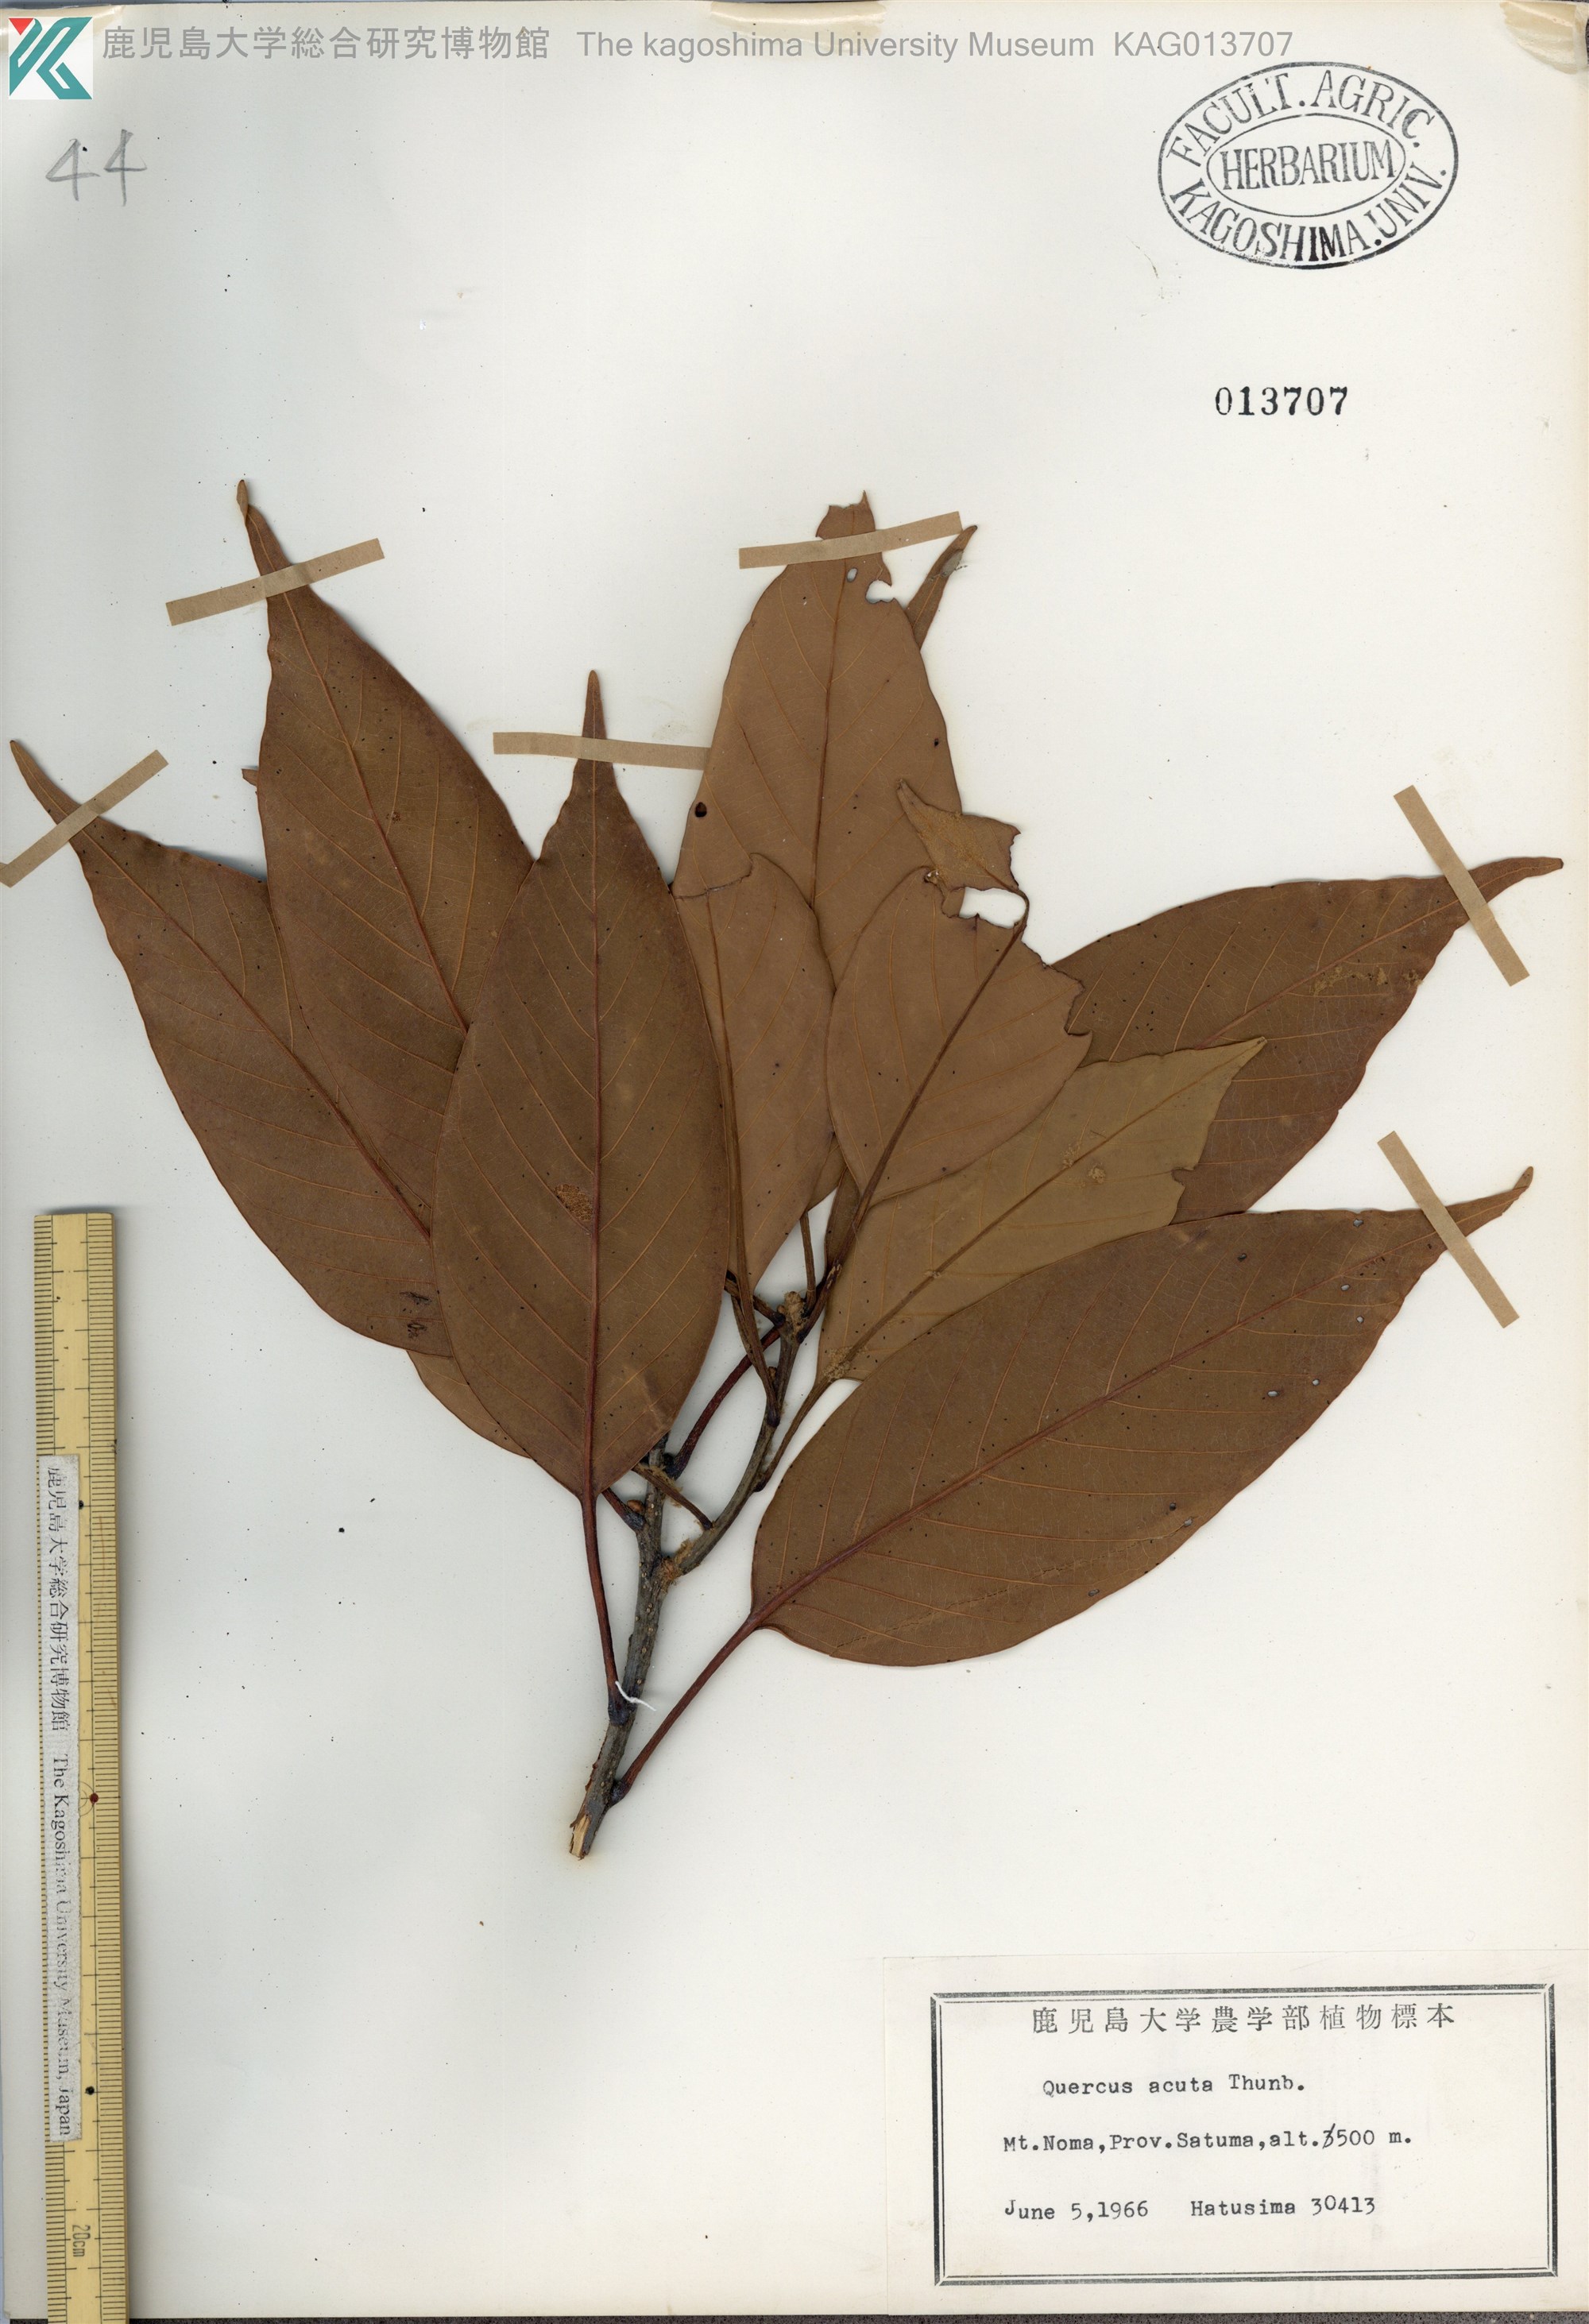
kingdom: Plantae
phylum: Tracheophyta
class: Magnoliopsida
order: Fagales
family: Fagaceae
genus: Quercus
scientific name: Quercus acuta
